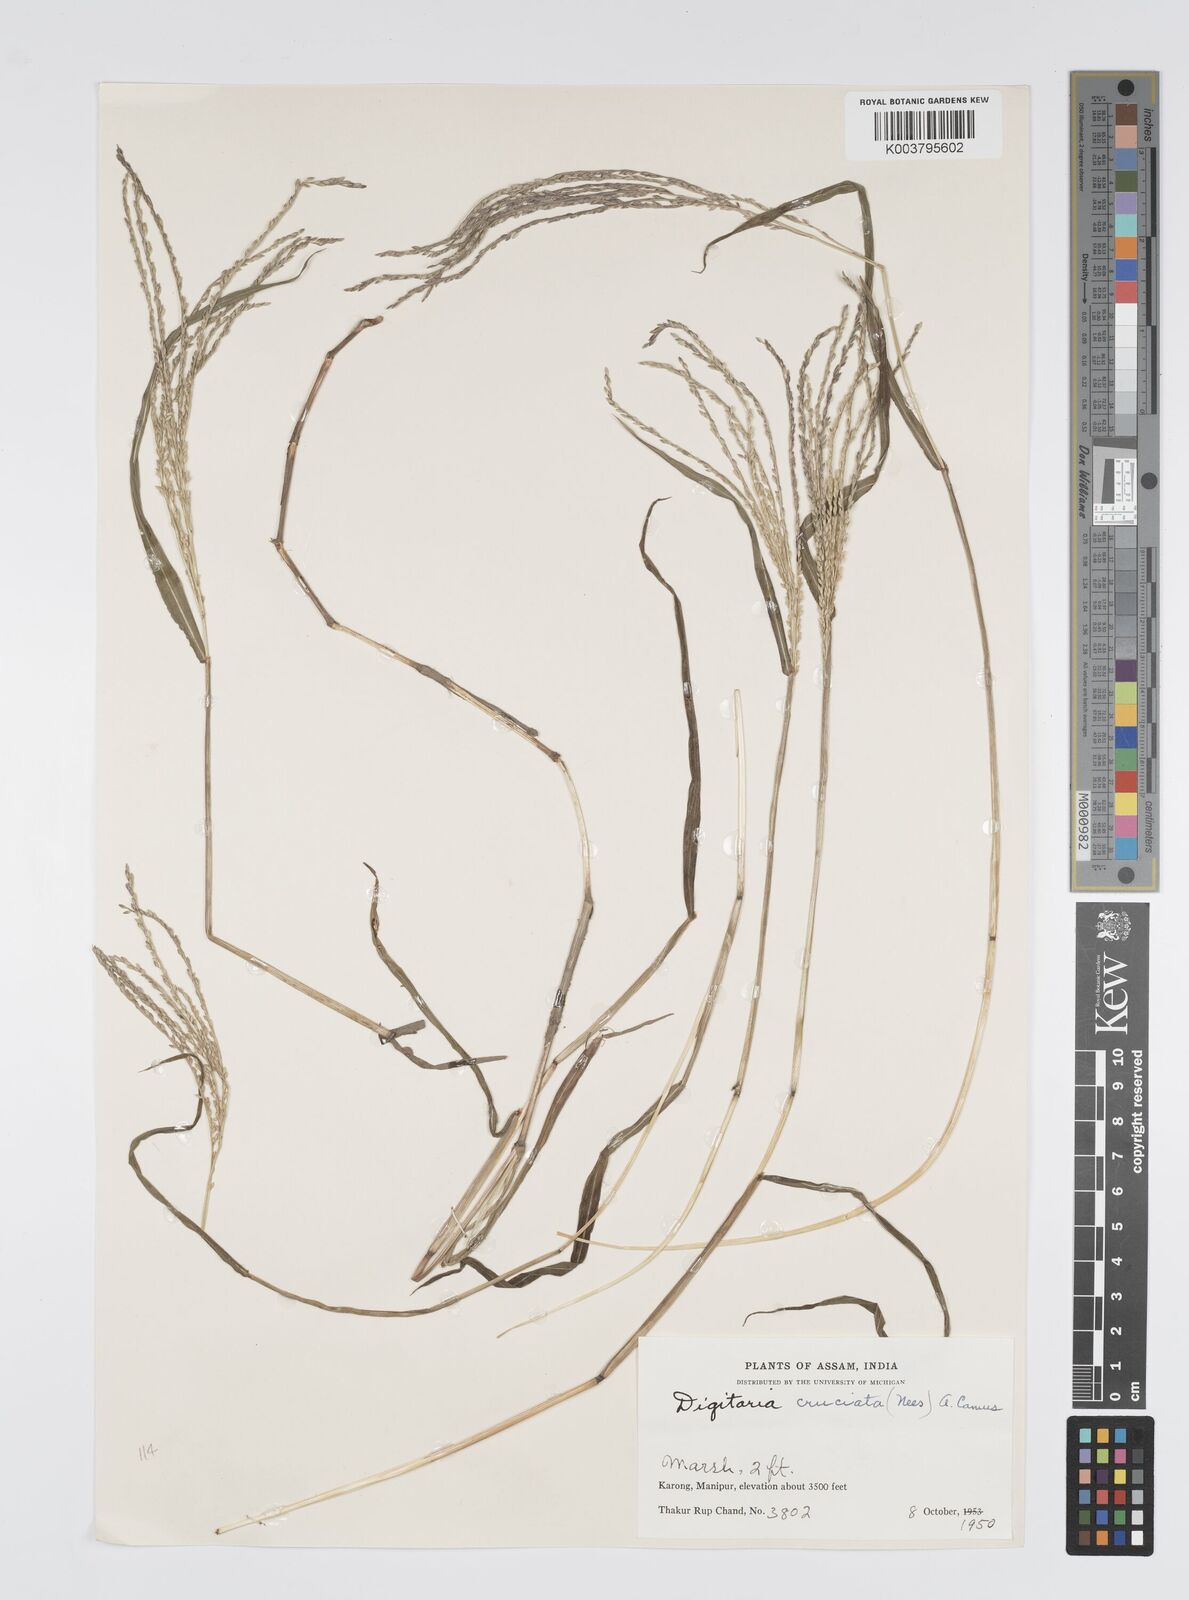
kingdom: Plantae
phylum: Tracheophyta
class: Liliopsida
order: Poales
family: Poaceae
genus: Digitaria
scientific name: Digitaria sanguinalis
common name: Hairy crabgrass
